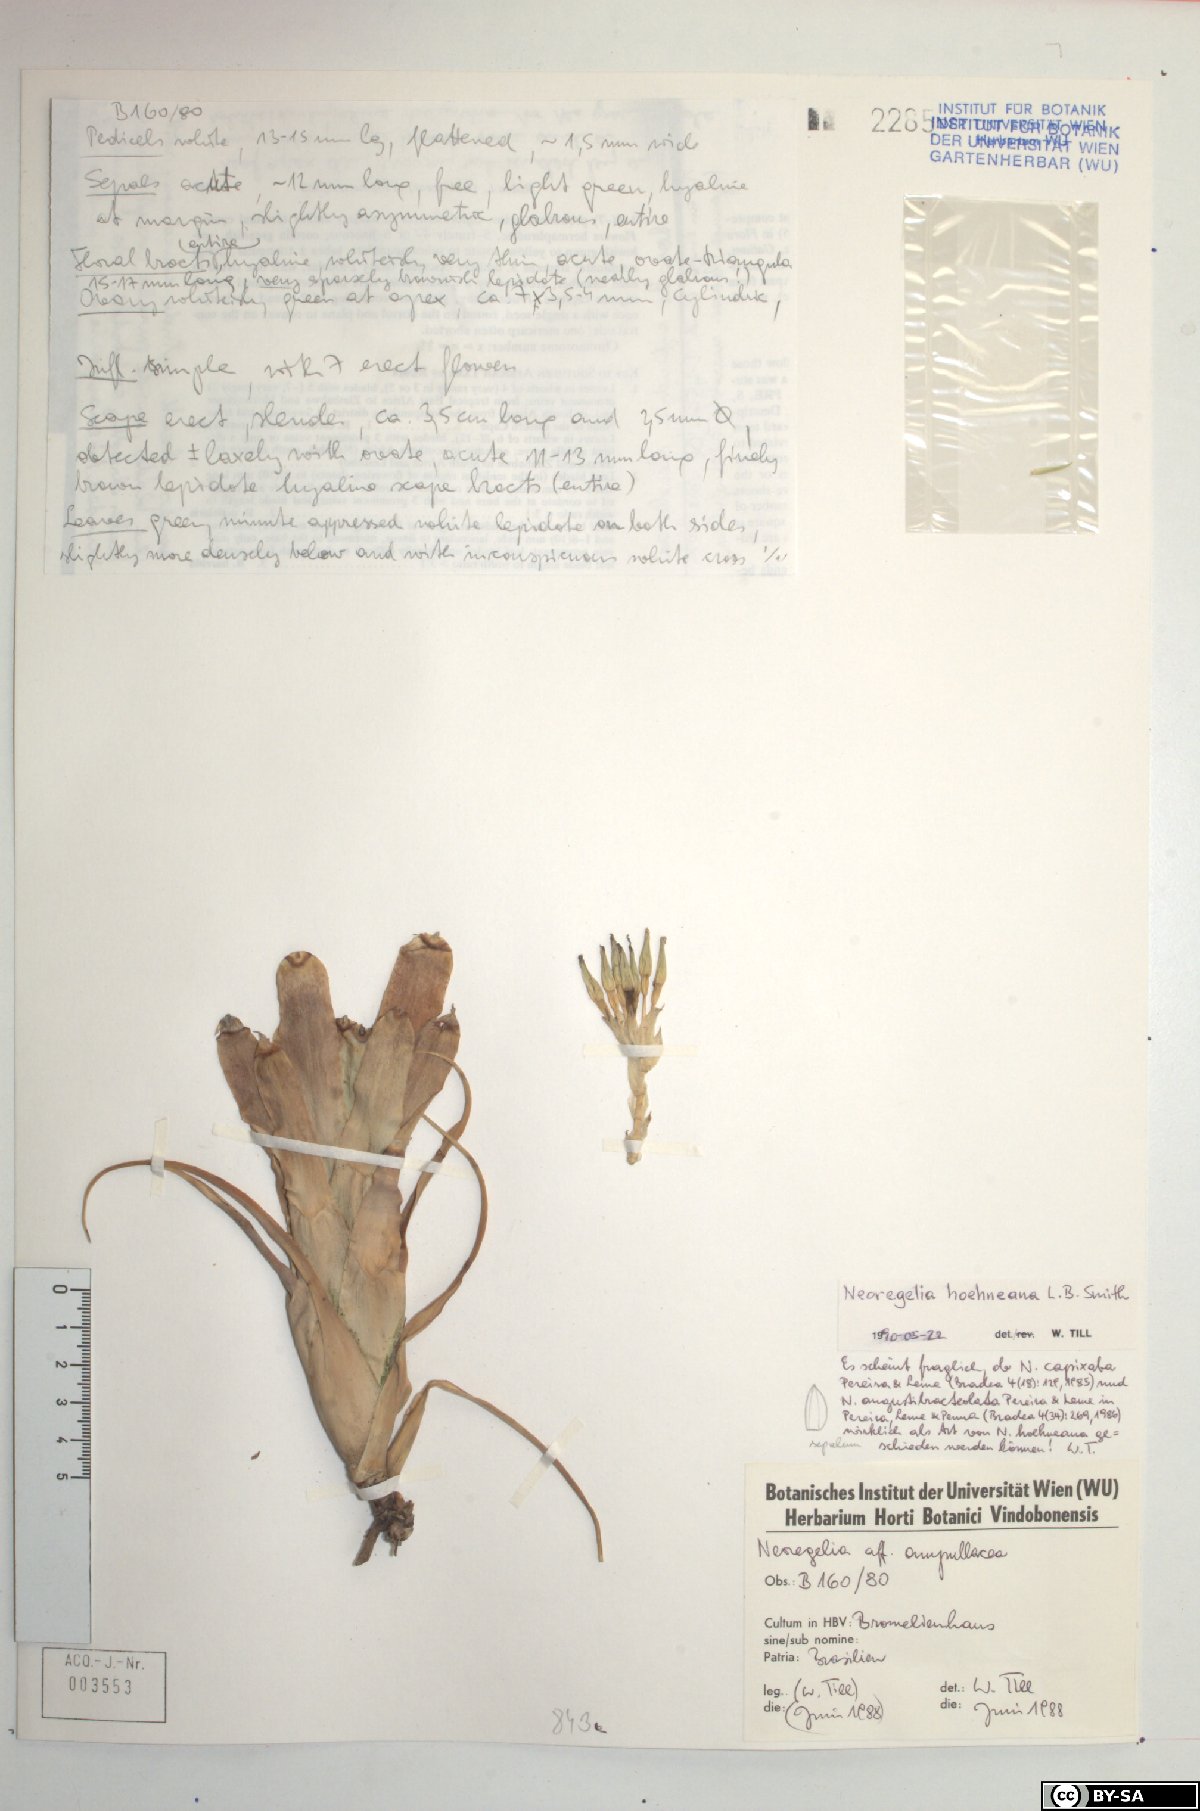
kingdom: Plantae
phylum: Tracheophyta
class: Liliopsida
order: Poales
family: Bromeliaceae
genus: Neoregelia
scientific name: Neoregelia hoehneana
